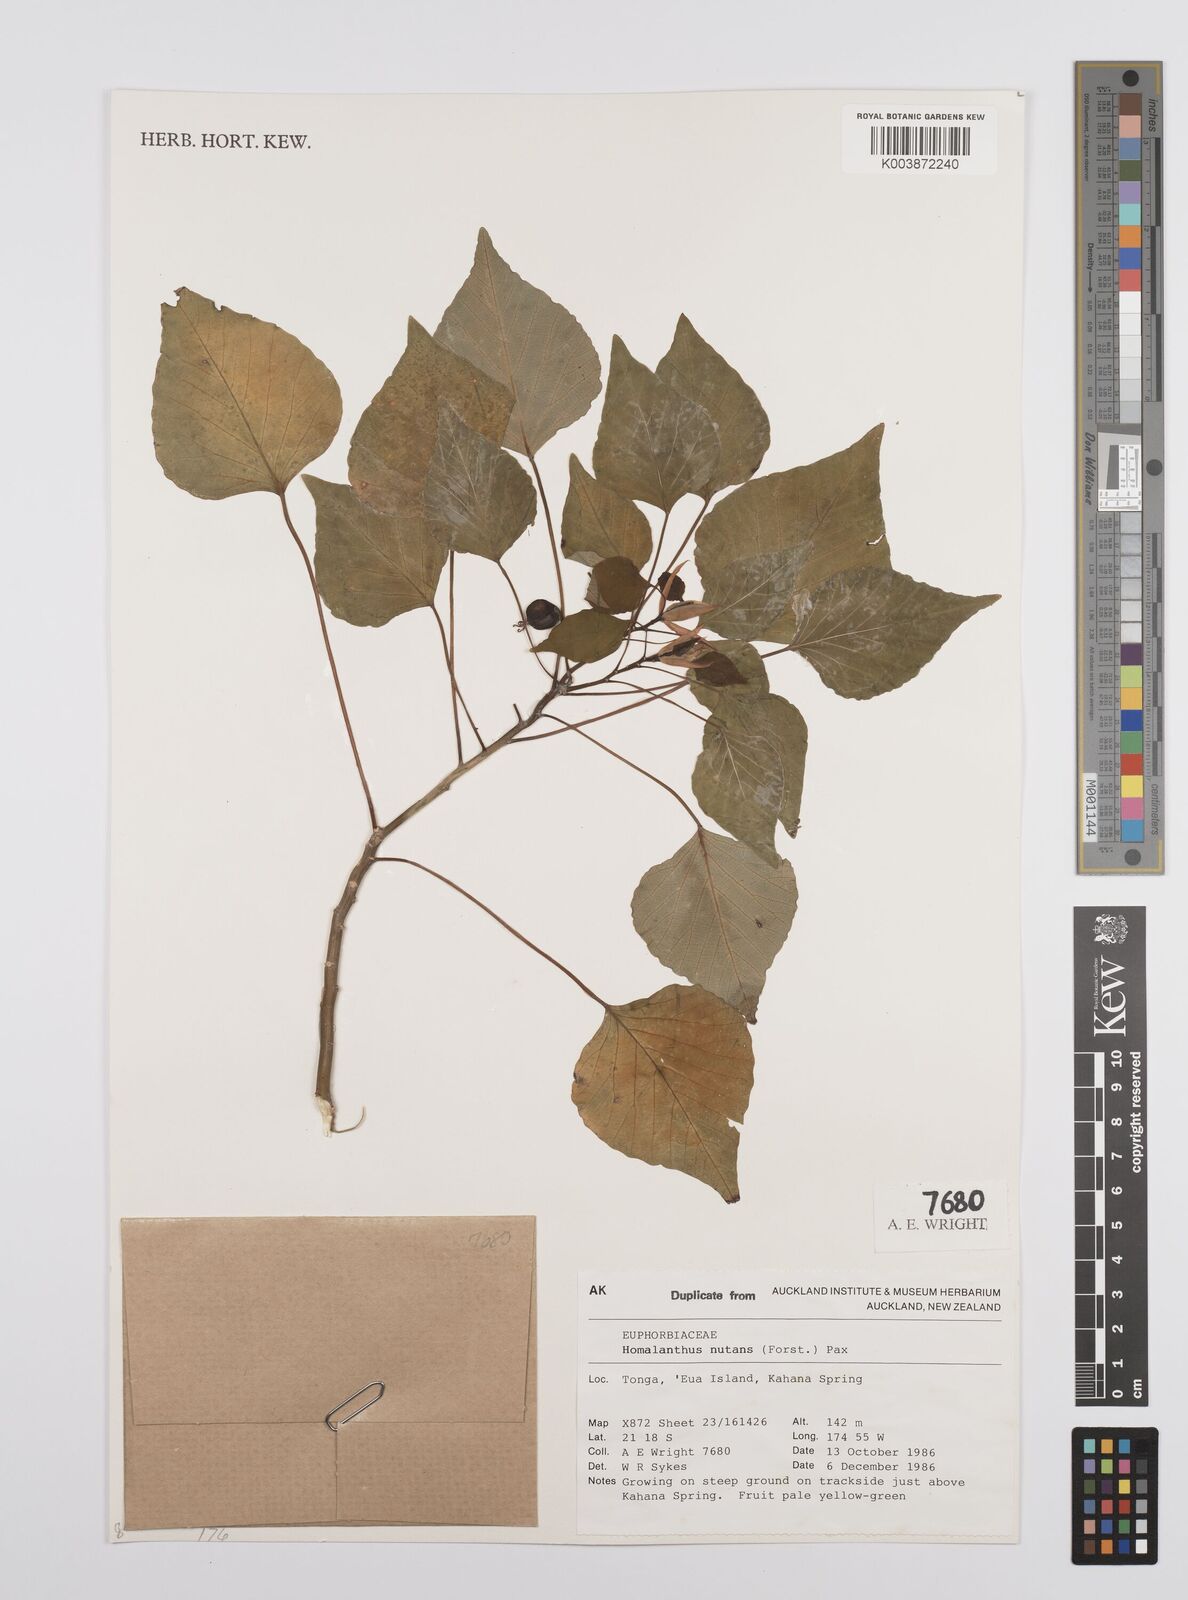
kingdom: Plantae
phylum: Tracheophyta
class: Magnoliopsida
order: Malpighiales
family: Euphorbiaceae
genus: Homalanthus
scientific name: Homalanthus nutans
